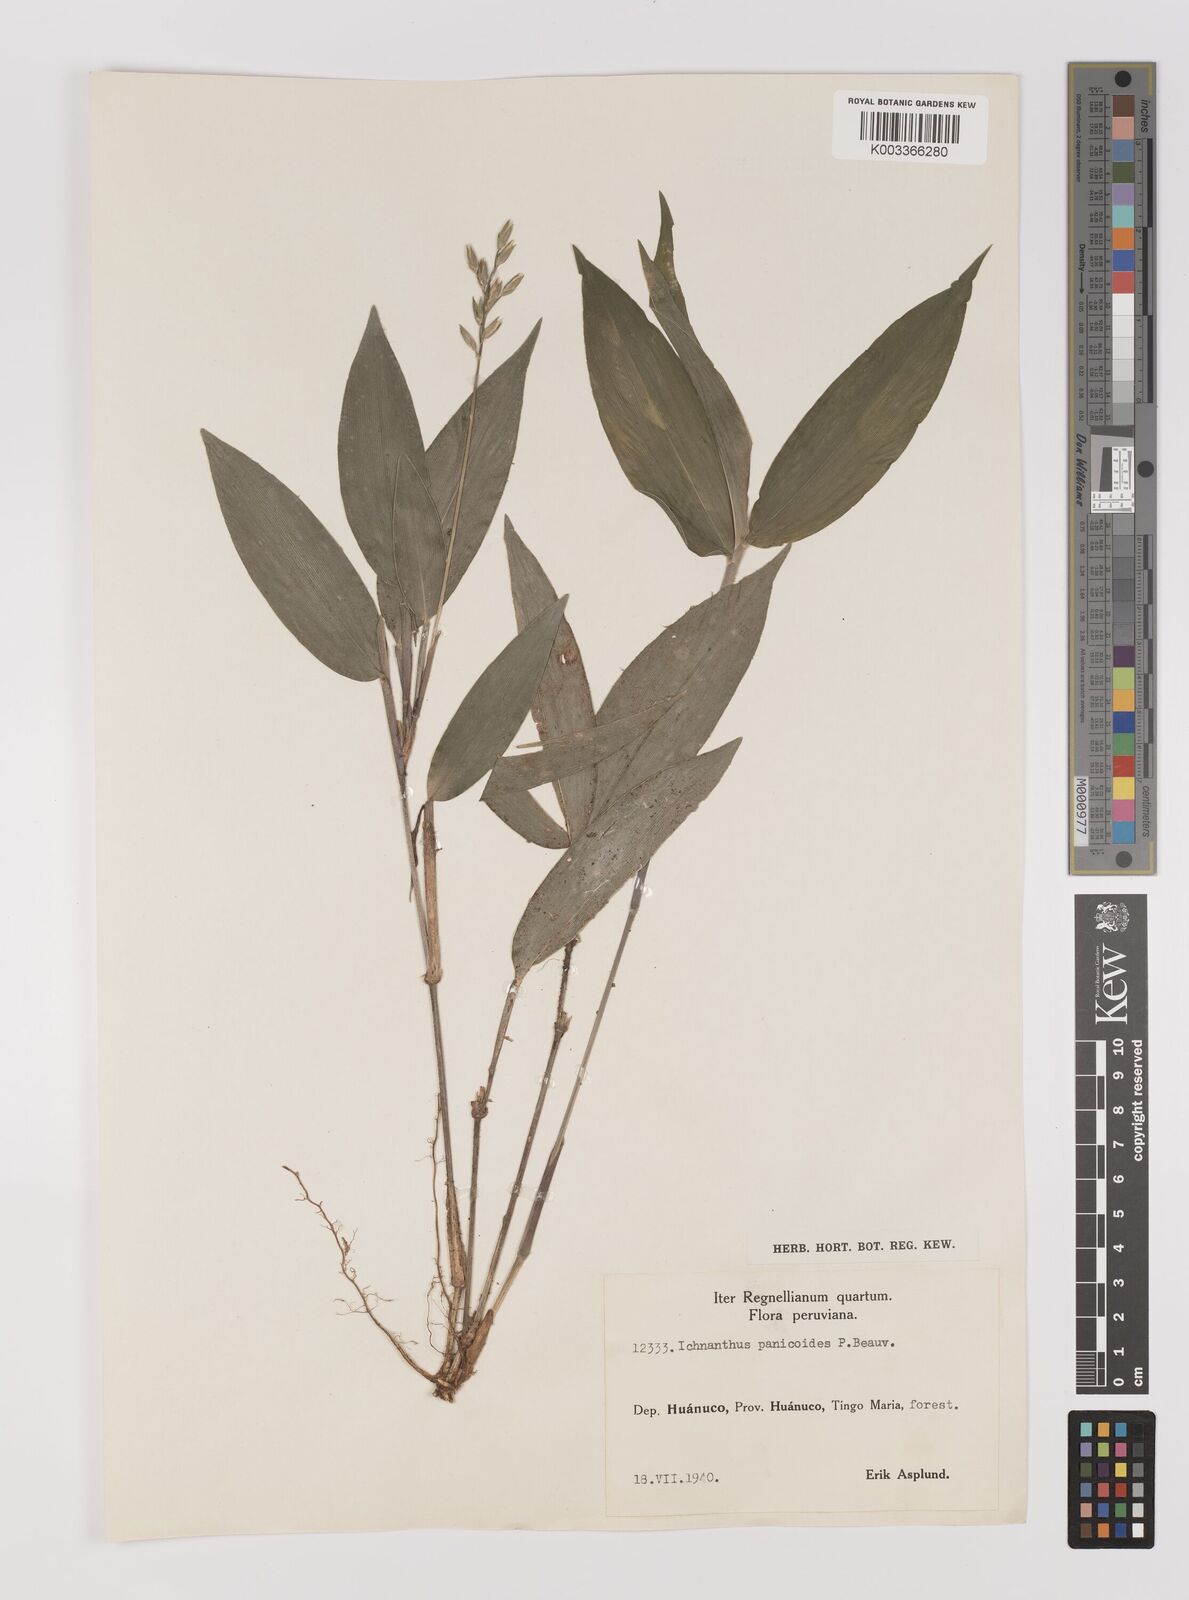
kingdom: Plantae
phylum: Tracheophyta
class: Liliopsida
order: Poales
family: Poaceae
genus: Ichnanthus
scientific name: Ichnanthus panicoides
